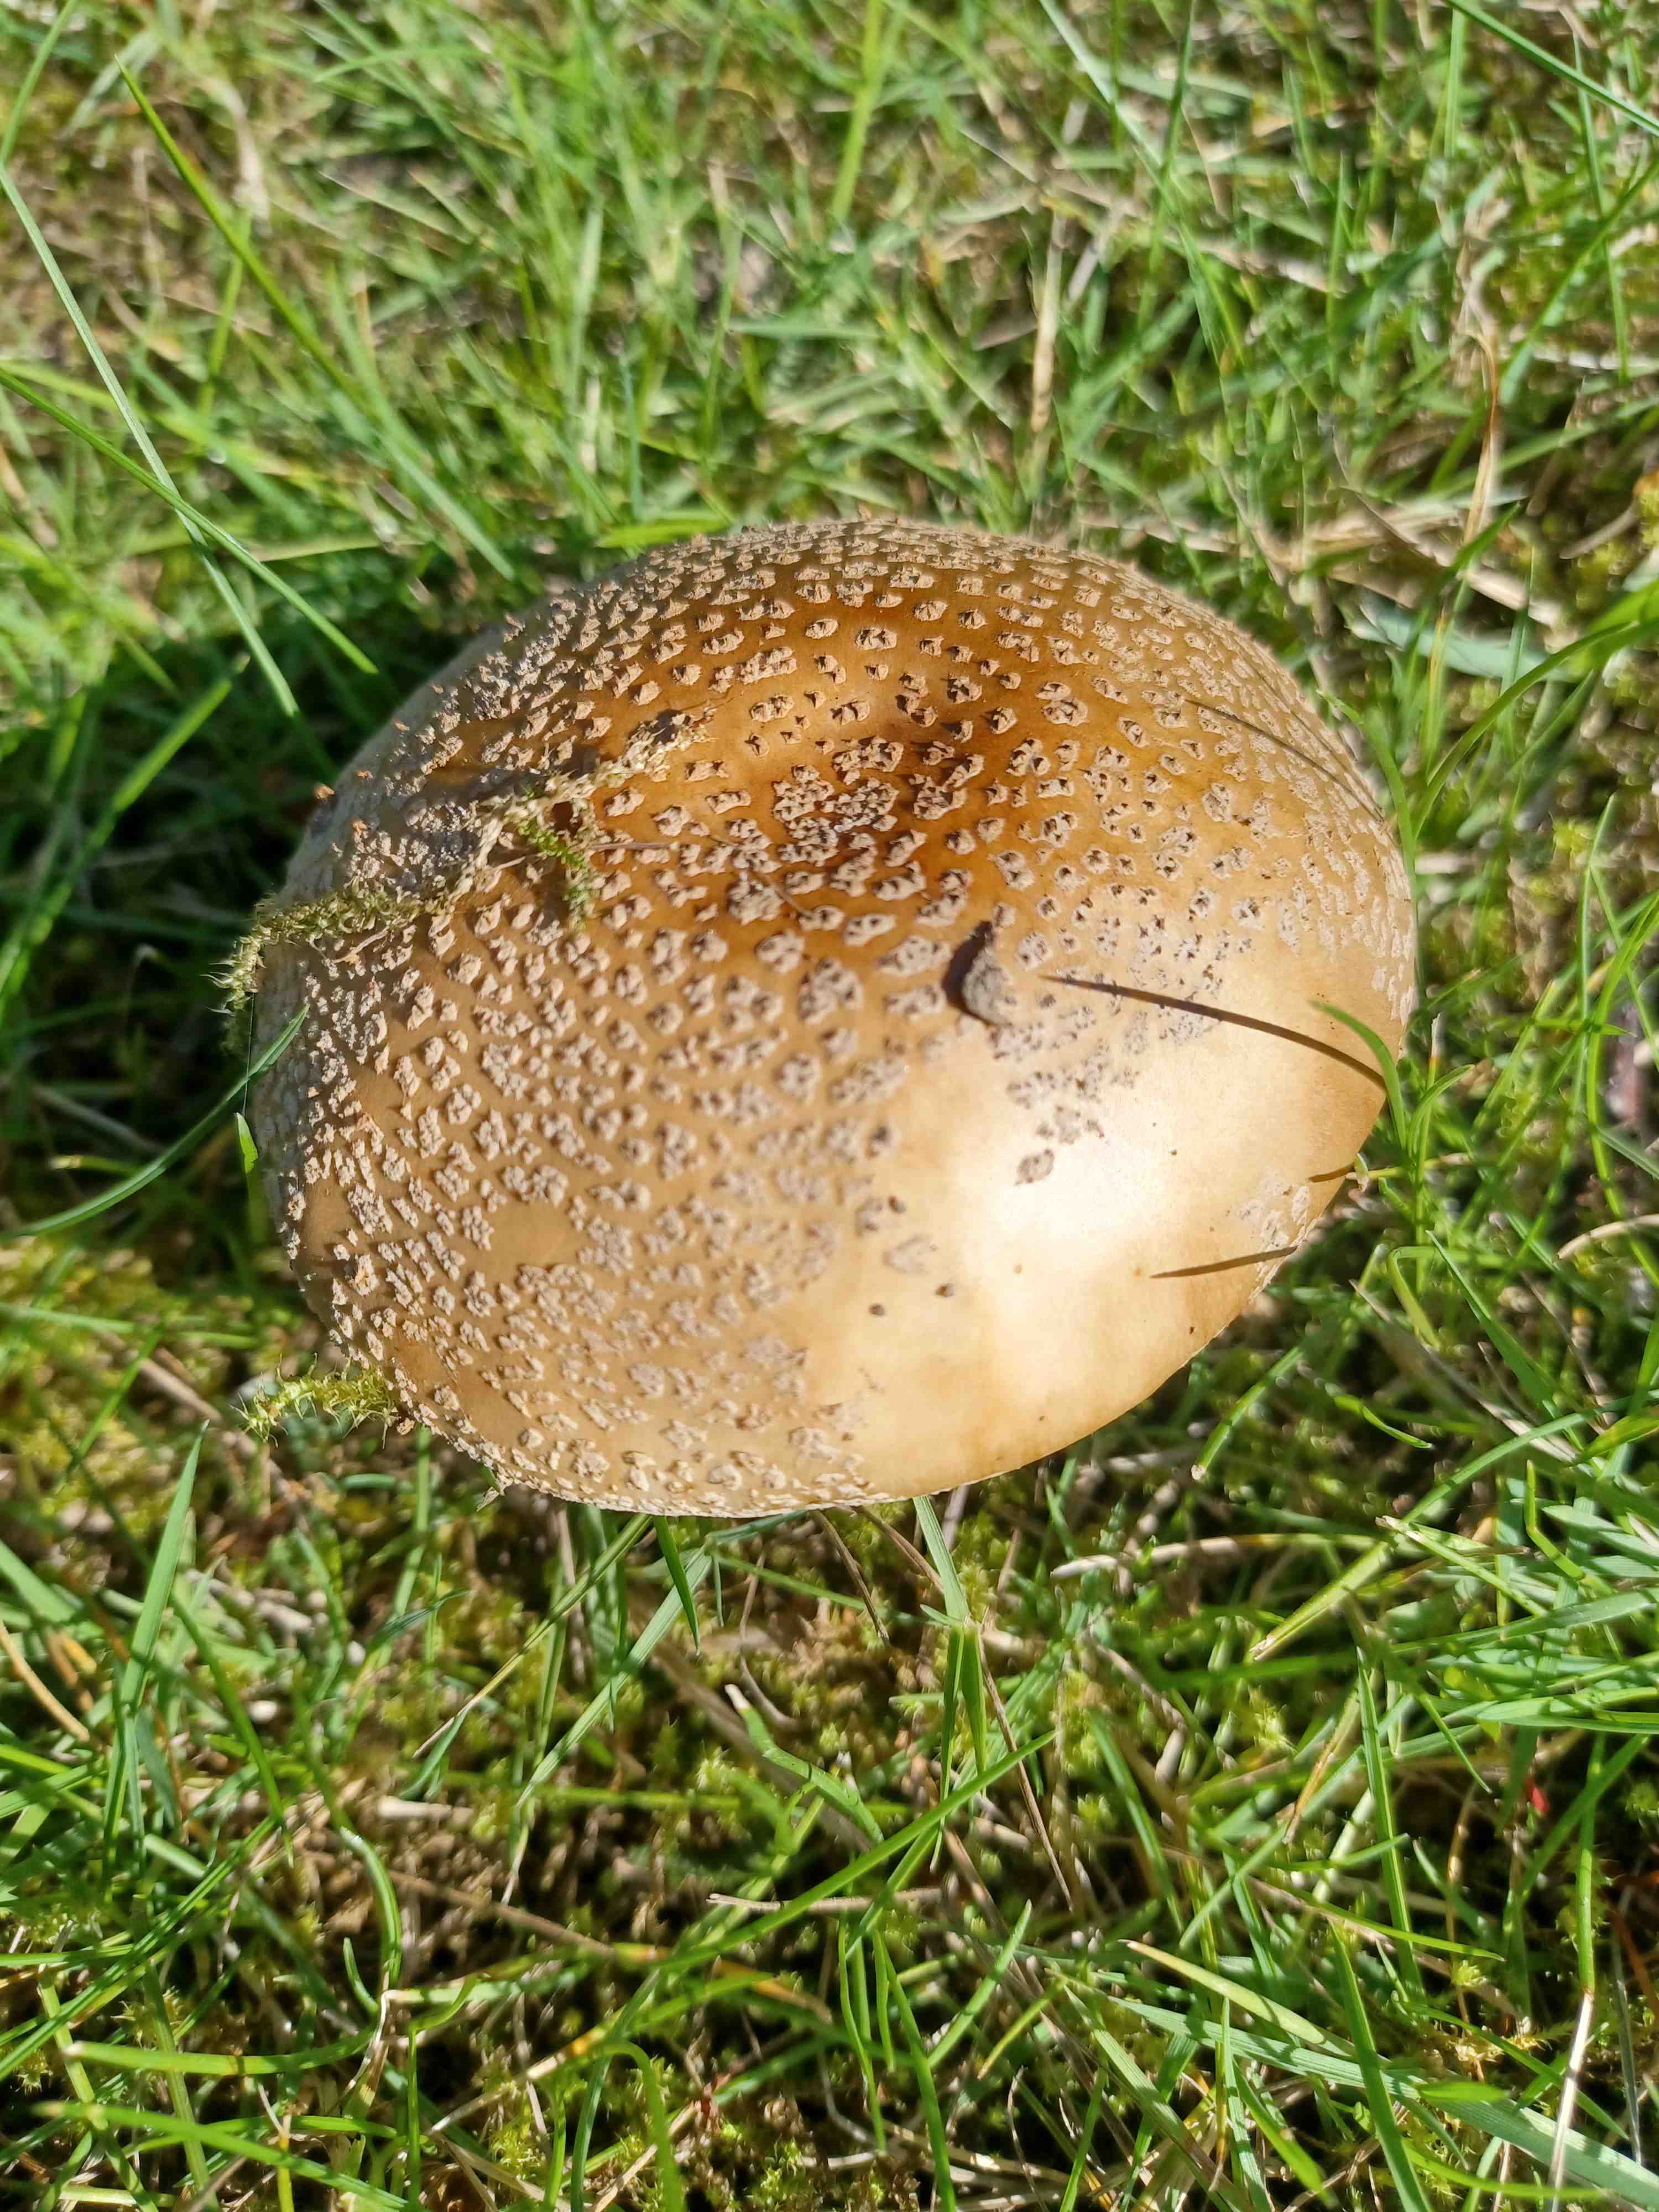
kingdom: Fungi
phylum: Basidiomycota
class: Agaricomycetes
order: Agaricales
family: Amanitaceae
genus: Amanita
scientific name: Amanita rubescens
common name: rødmende fluesvamp
